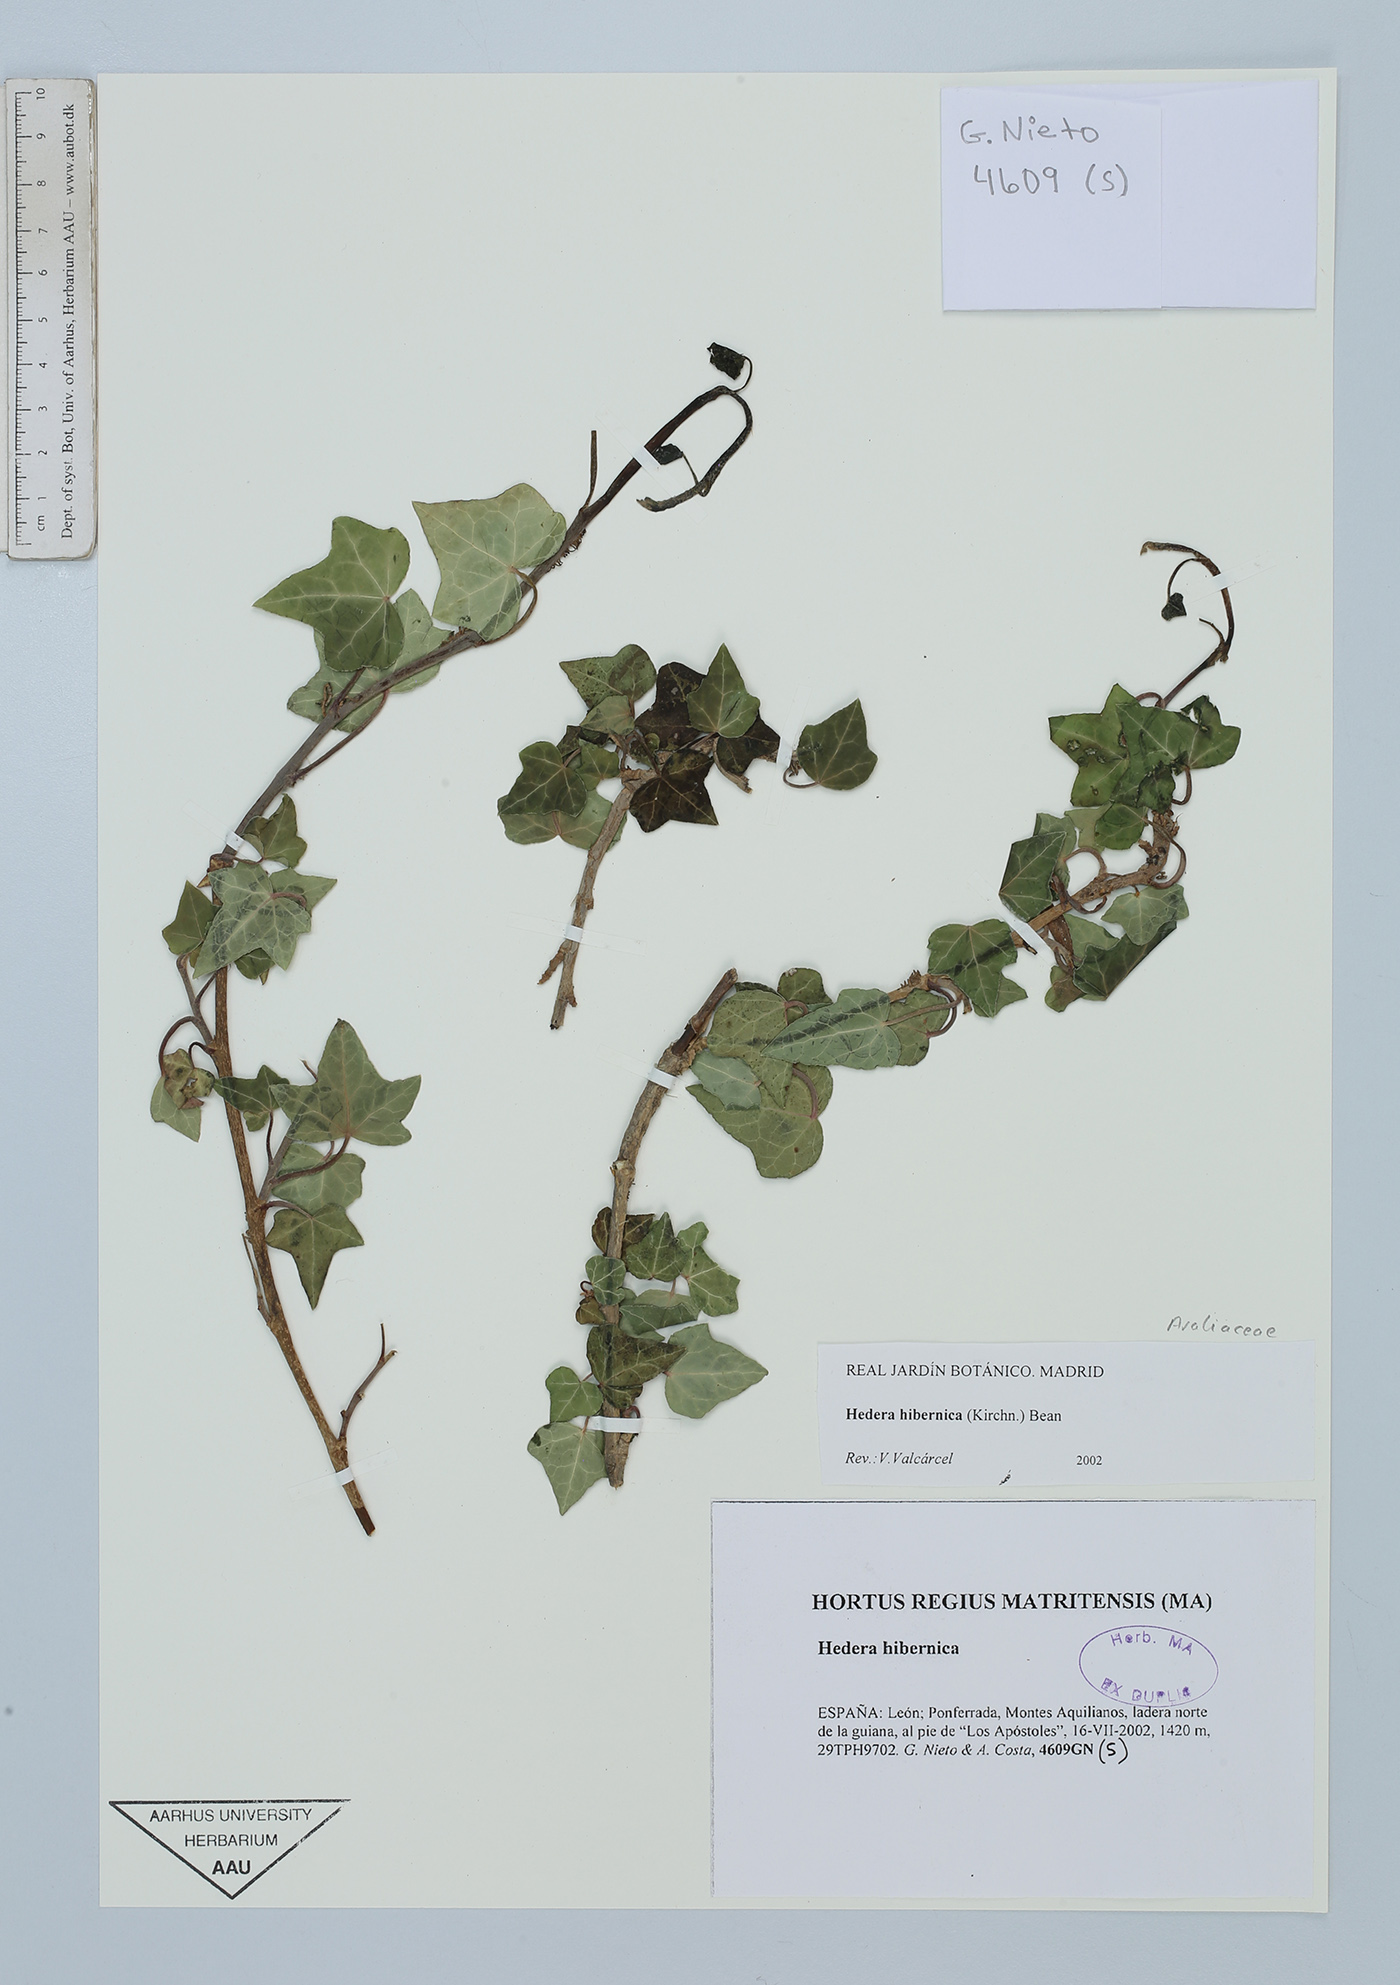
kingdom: Plantae
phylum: Tracheophyta
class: Magnoliopsida
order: Apiales
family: Araliaceae
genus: Hedera
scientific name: Hedera hibernica
